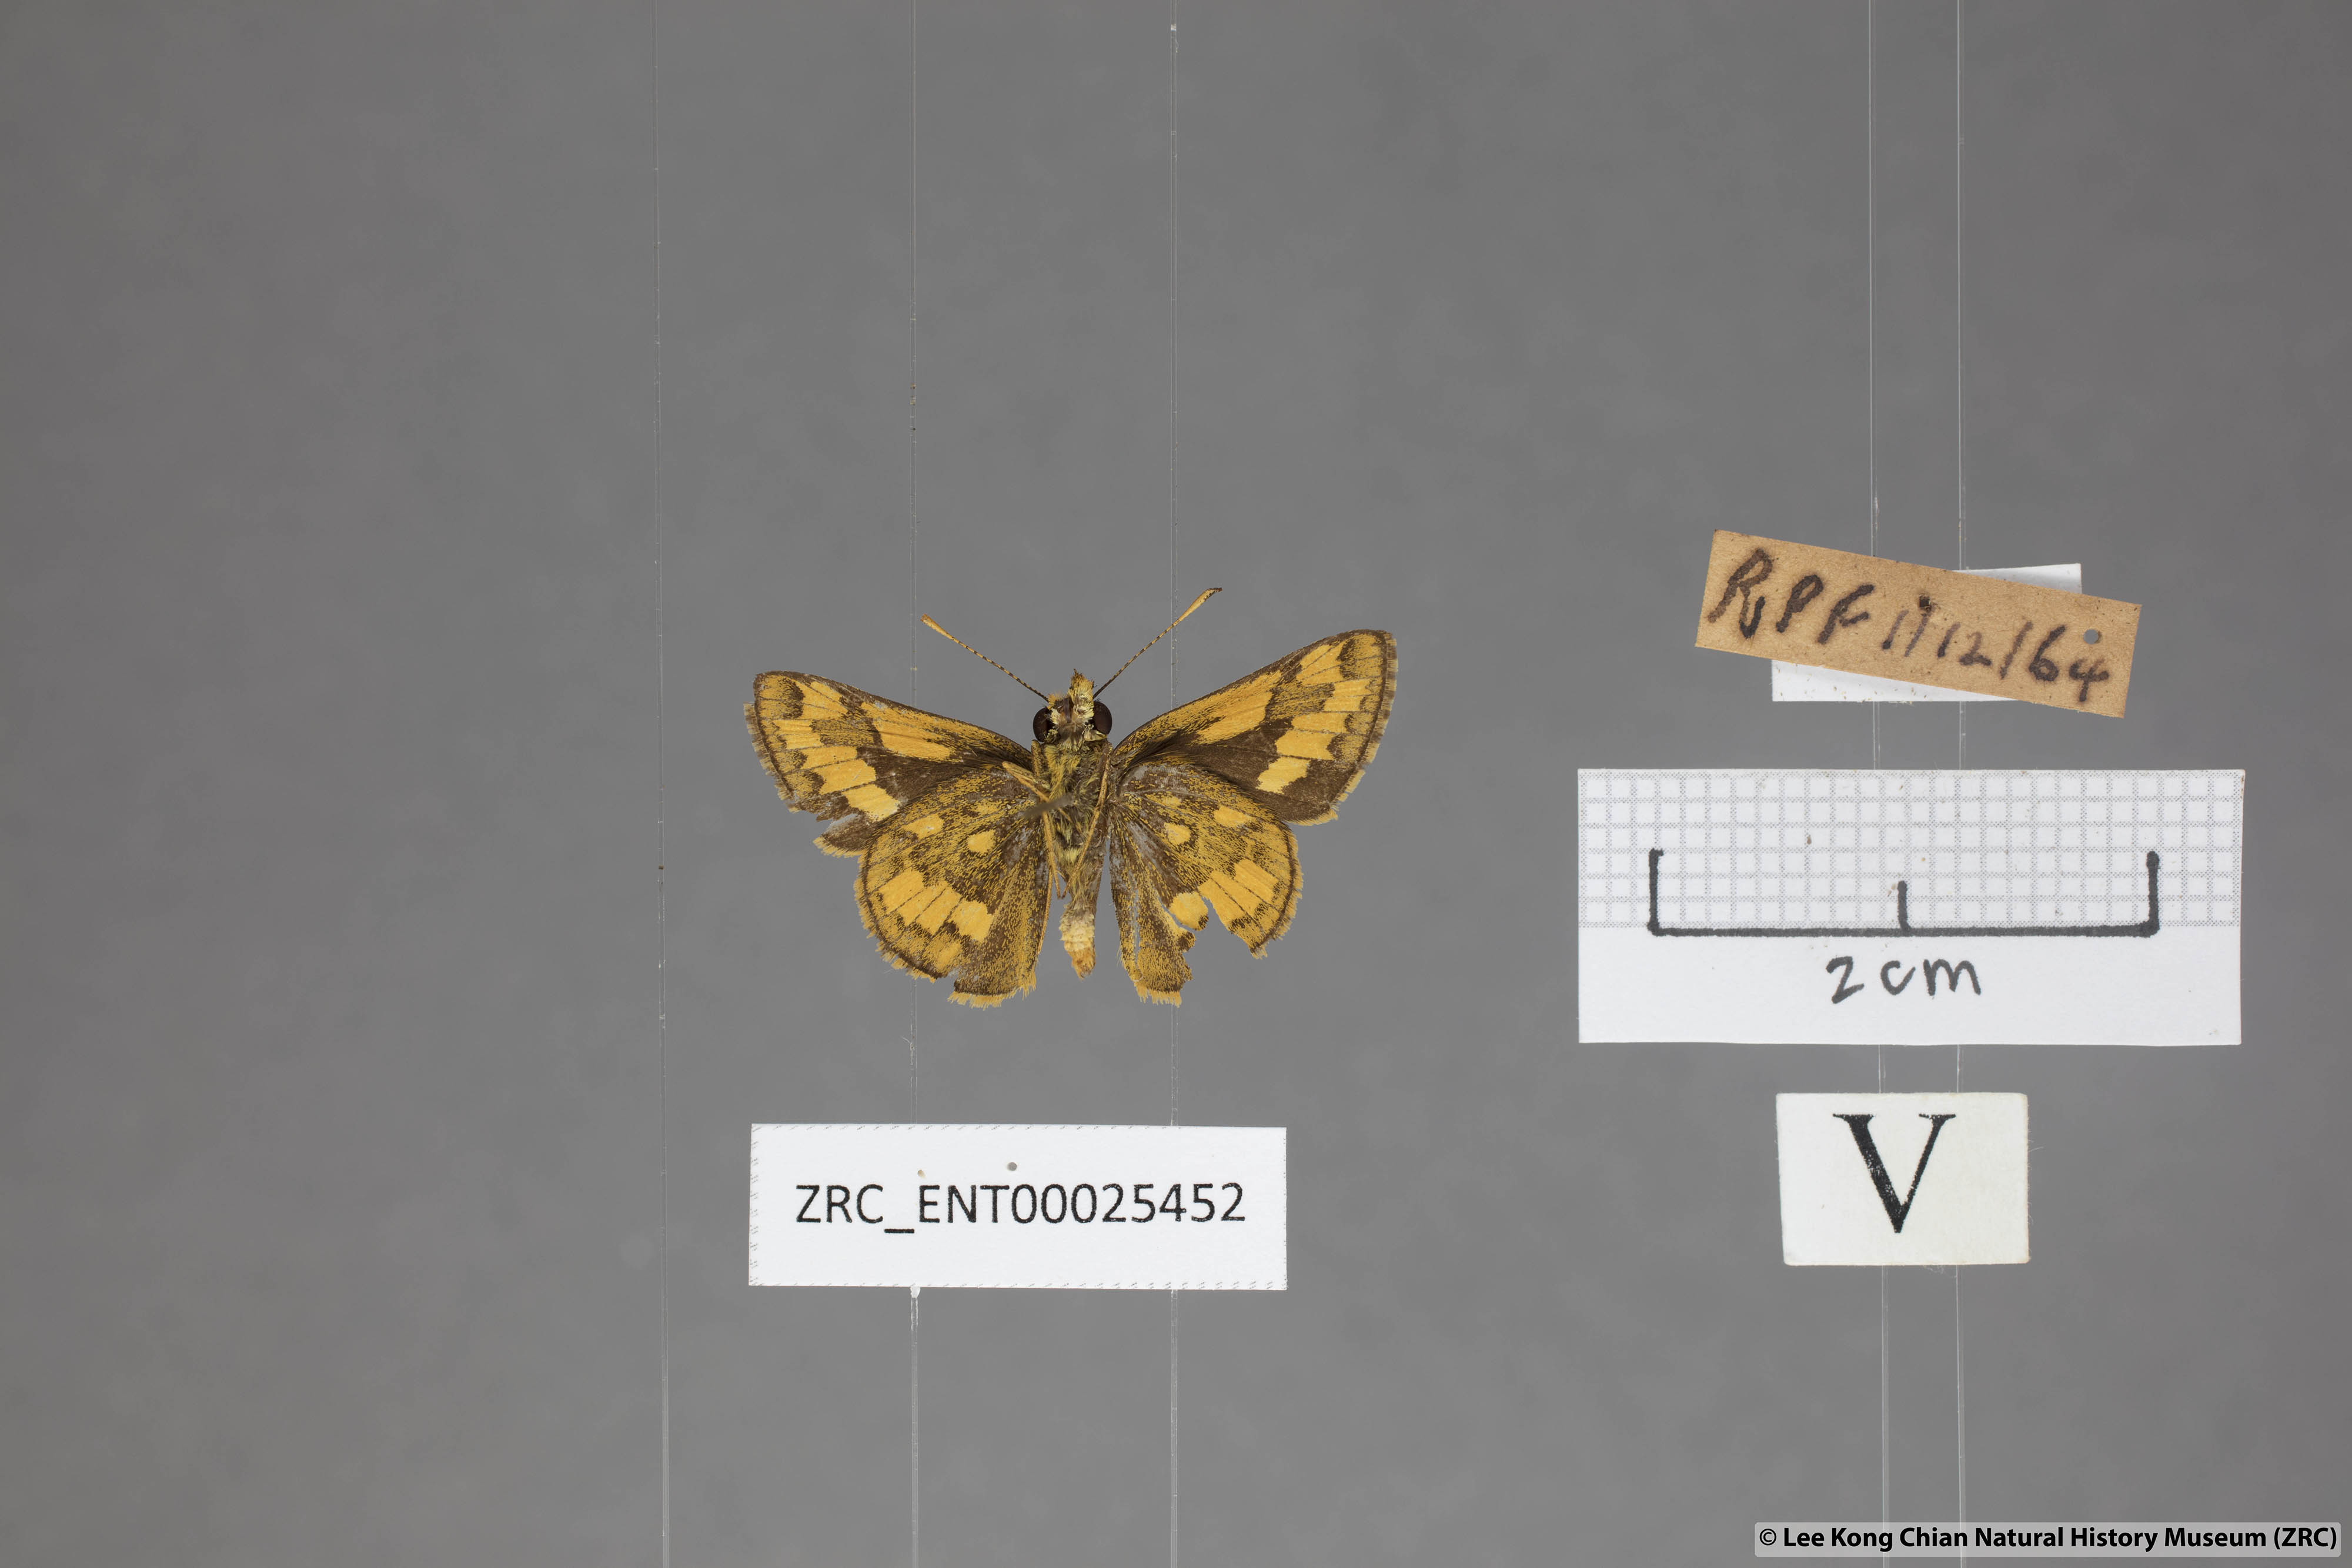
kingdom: Animalia
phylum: Arthropoda
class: Insecta
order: Lepidoptera
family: Hesperiidae
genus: Potanthus
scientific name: Potanthus omaha
